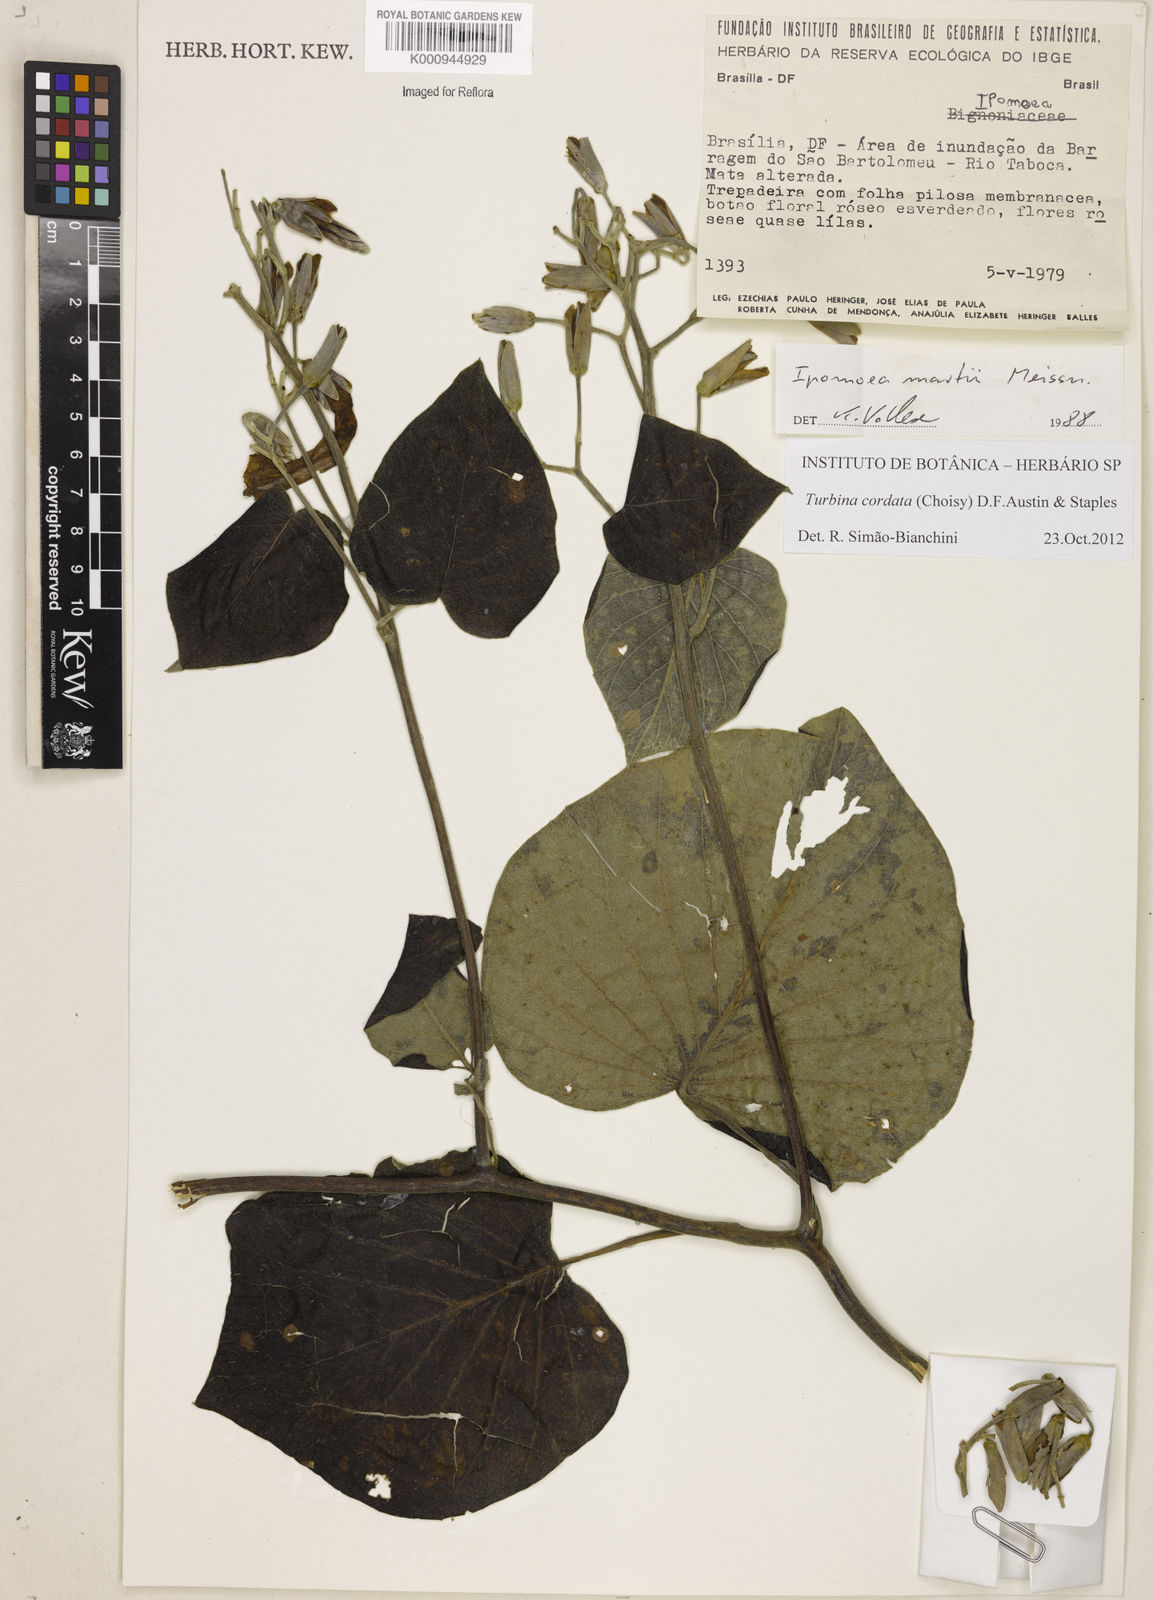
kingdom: Animalia
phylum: Mollusca
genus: Turbina
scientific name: Turbina
